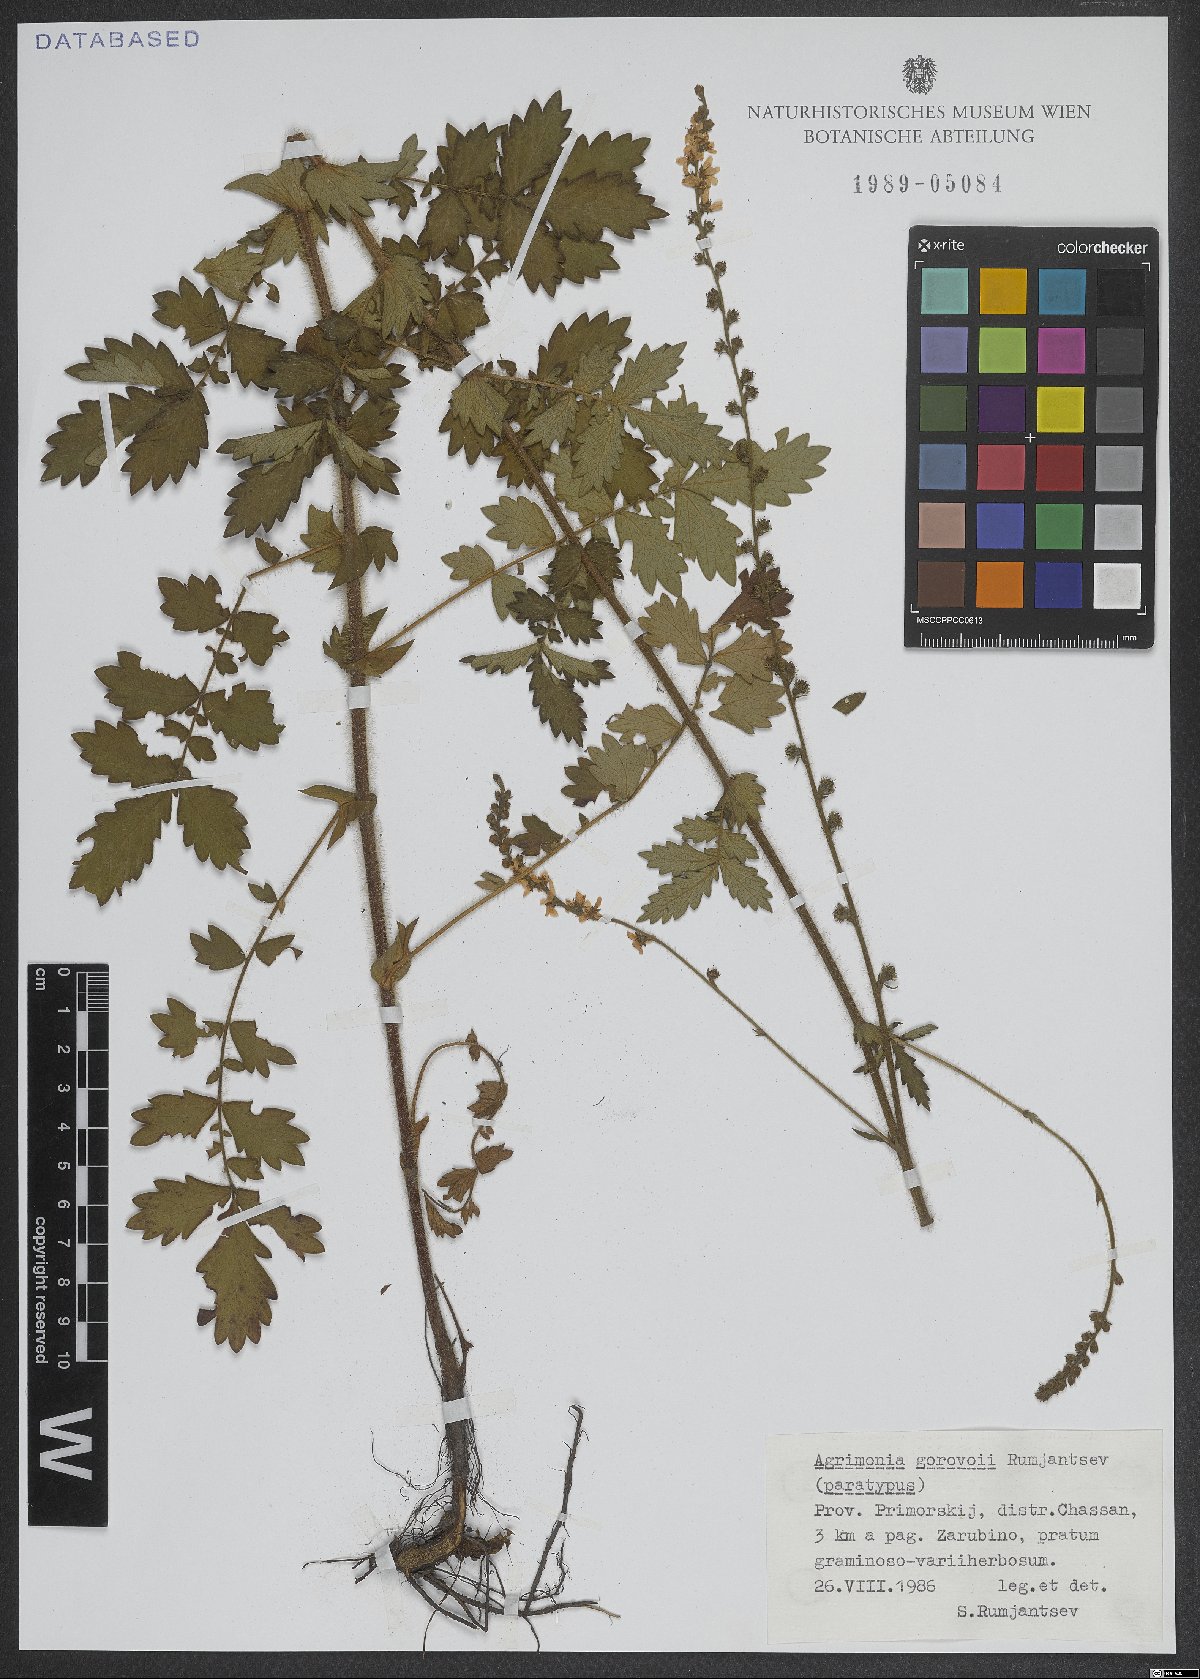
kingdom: Plantae
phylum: Tracheophyta
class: Magnoliopsida
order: Rosales
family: Rosaceae
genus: Agrimonia
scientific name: Agrimonia gorovoii
